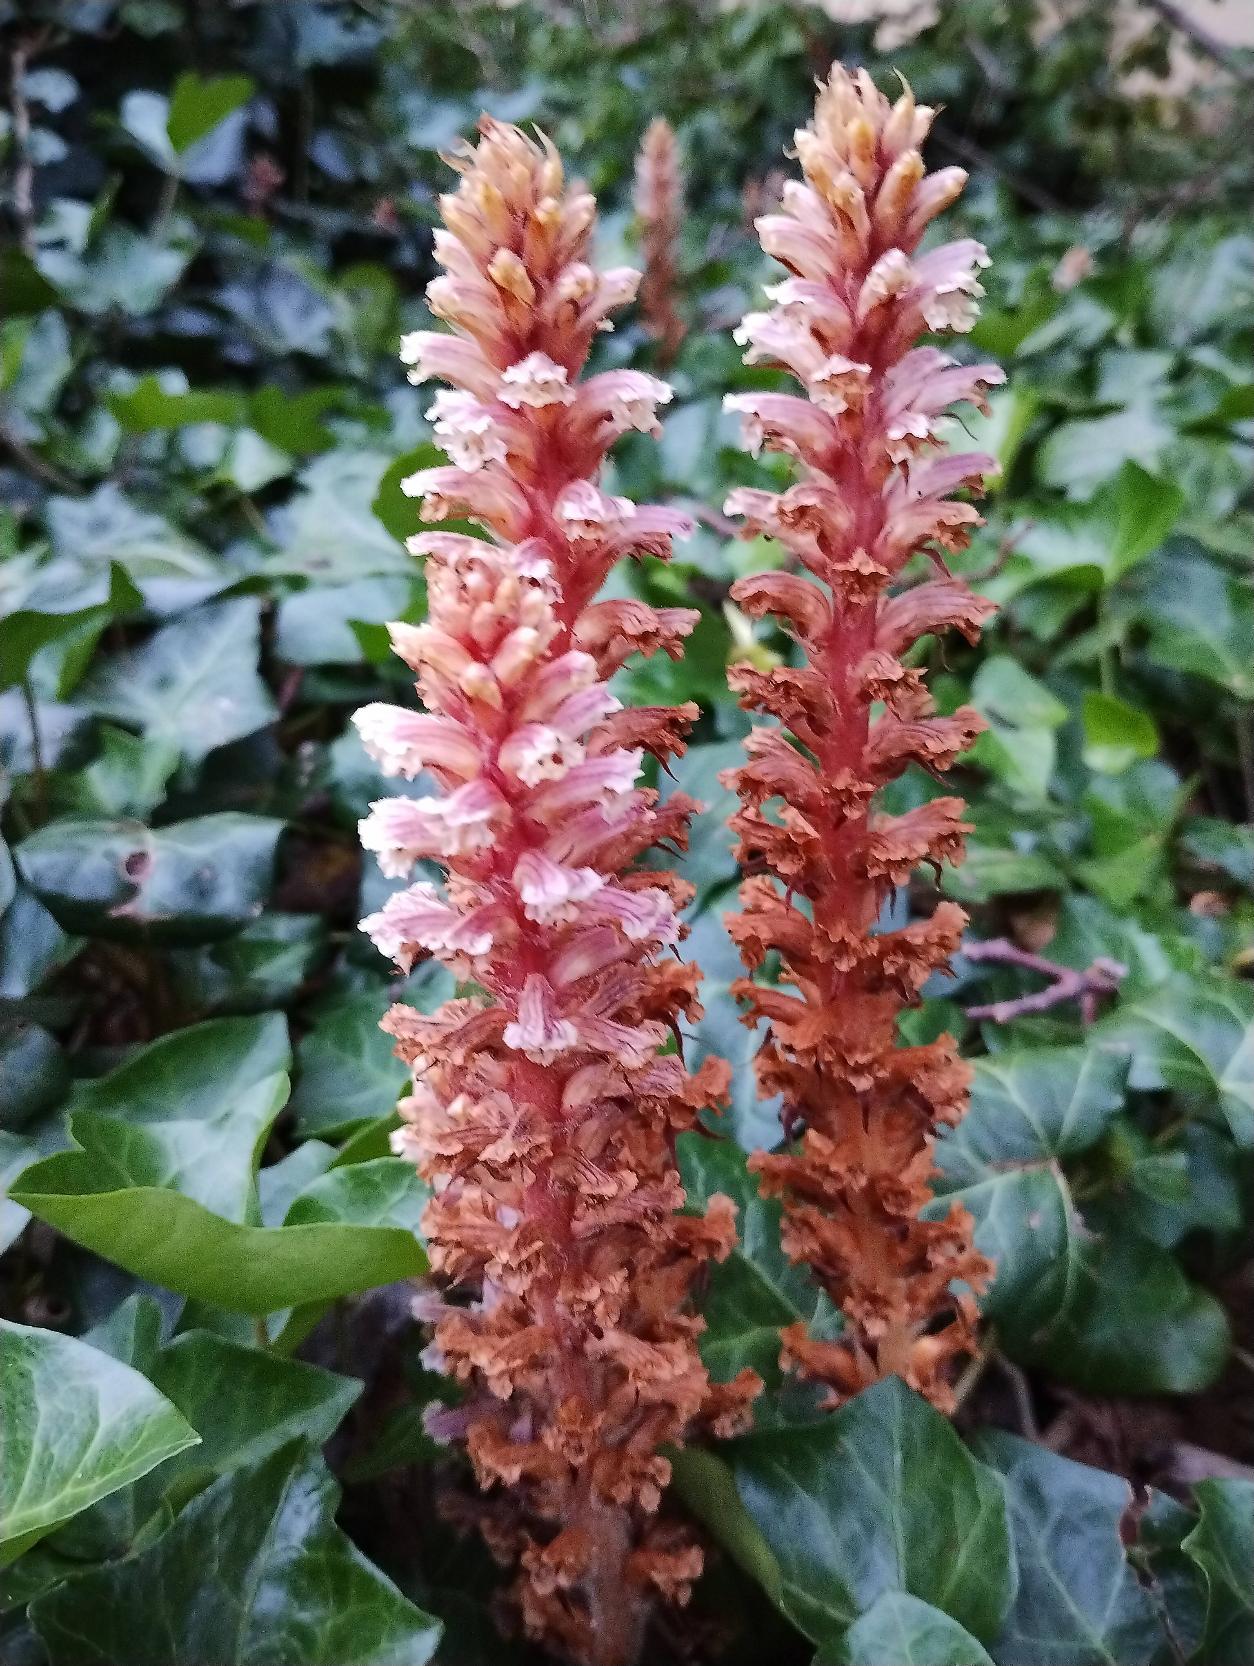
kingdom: Plantae
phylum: Tracheophyta
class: Magnoliopsida
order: Lamiales
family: Orobanchaceae
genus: Orobanche
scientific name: Orobanche hederae
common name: Vedbend-gyvelkvæler
